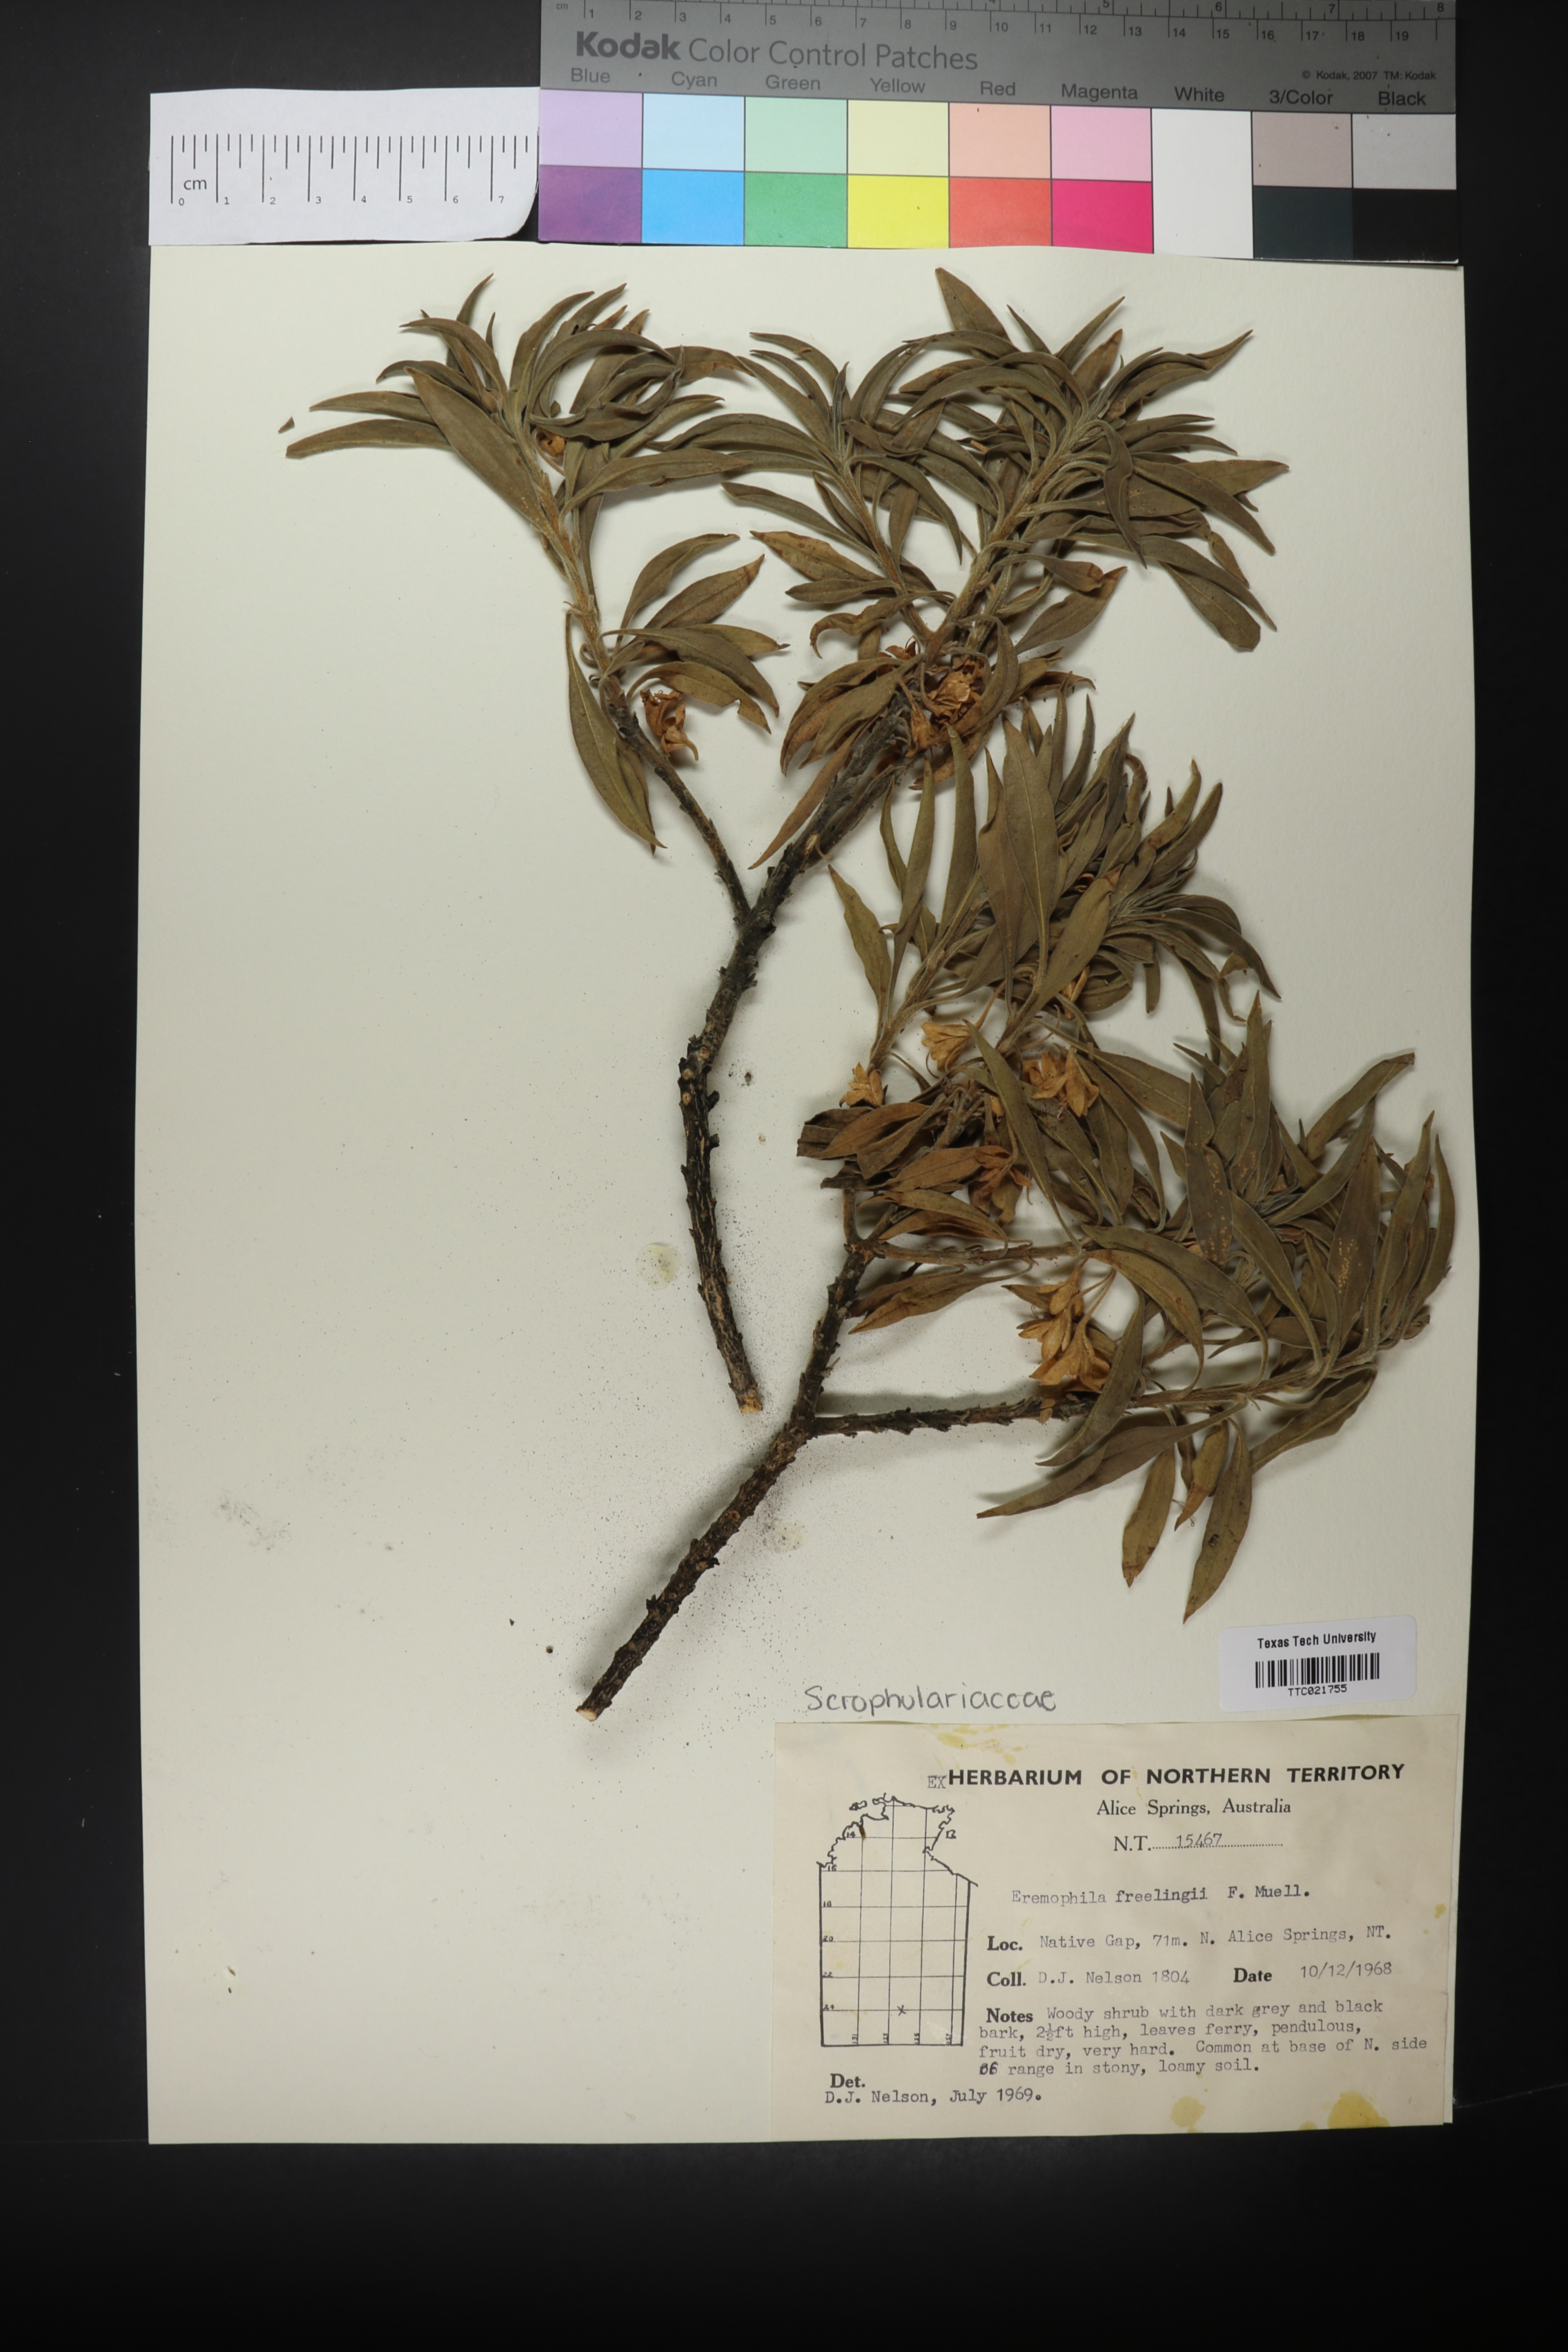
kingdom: Plantae
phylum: Tracheophyta
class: Magnoliopsida
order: Lamiales
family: Scrophulariaceae
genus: Eremophila
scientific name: Eremophila freelingii
